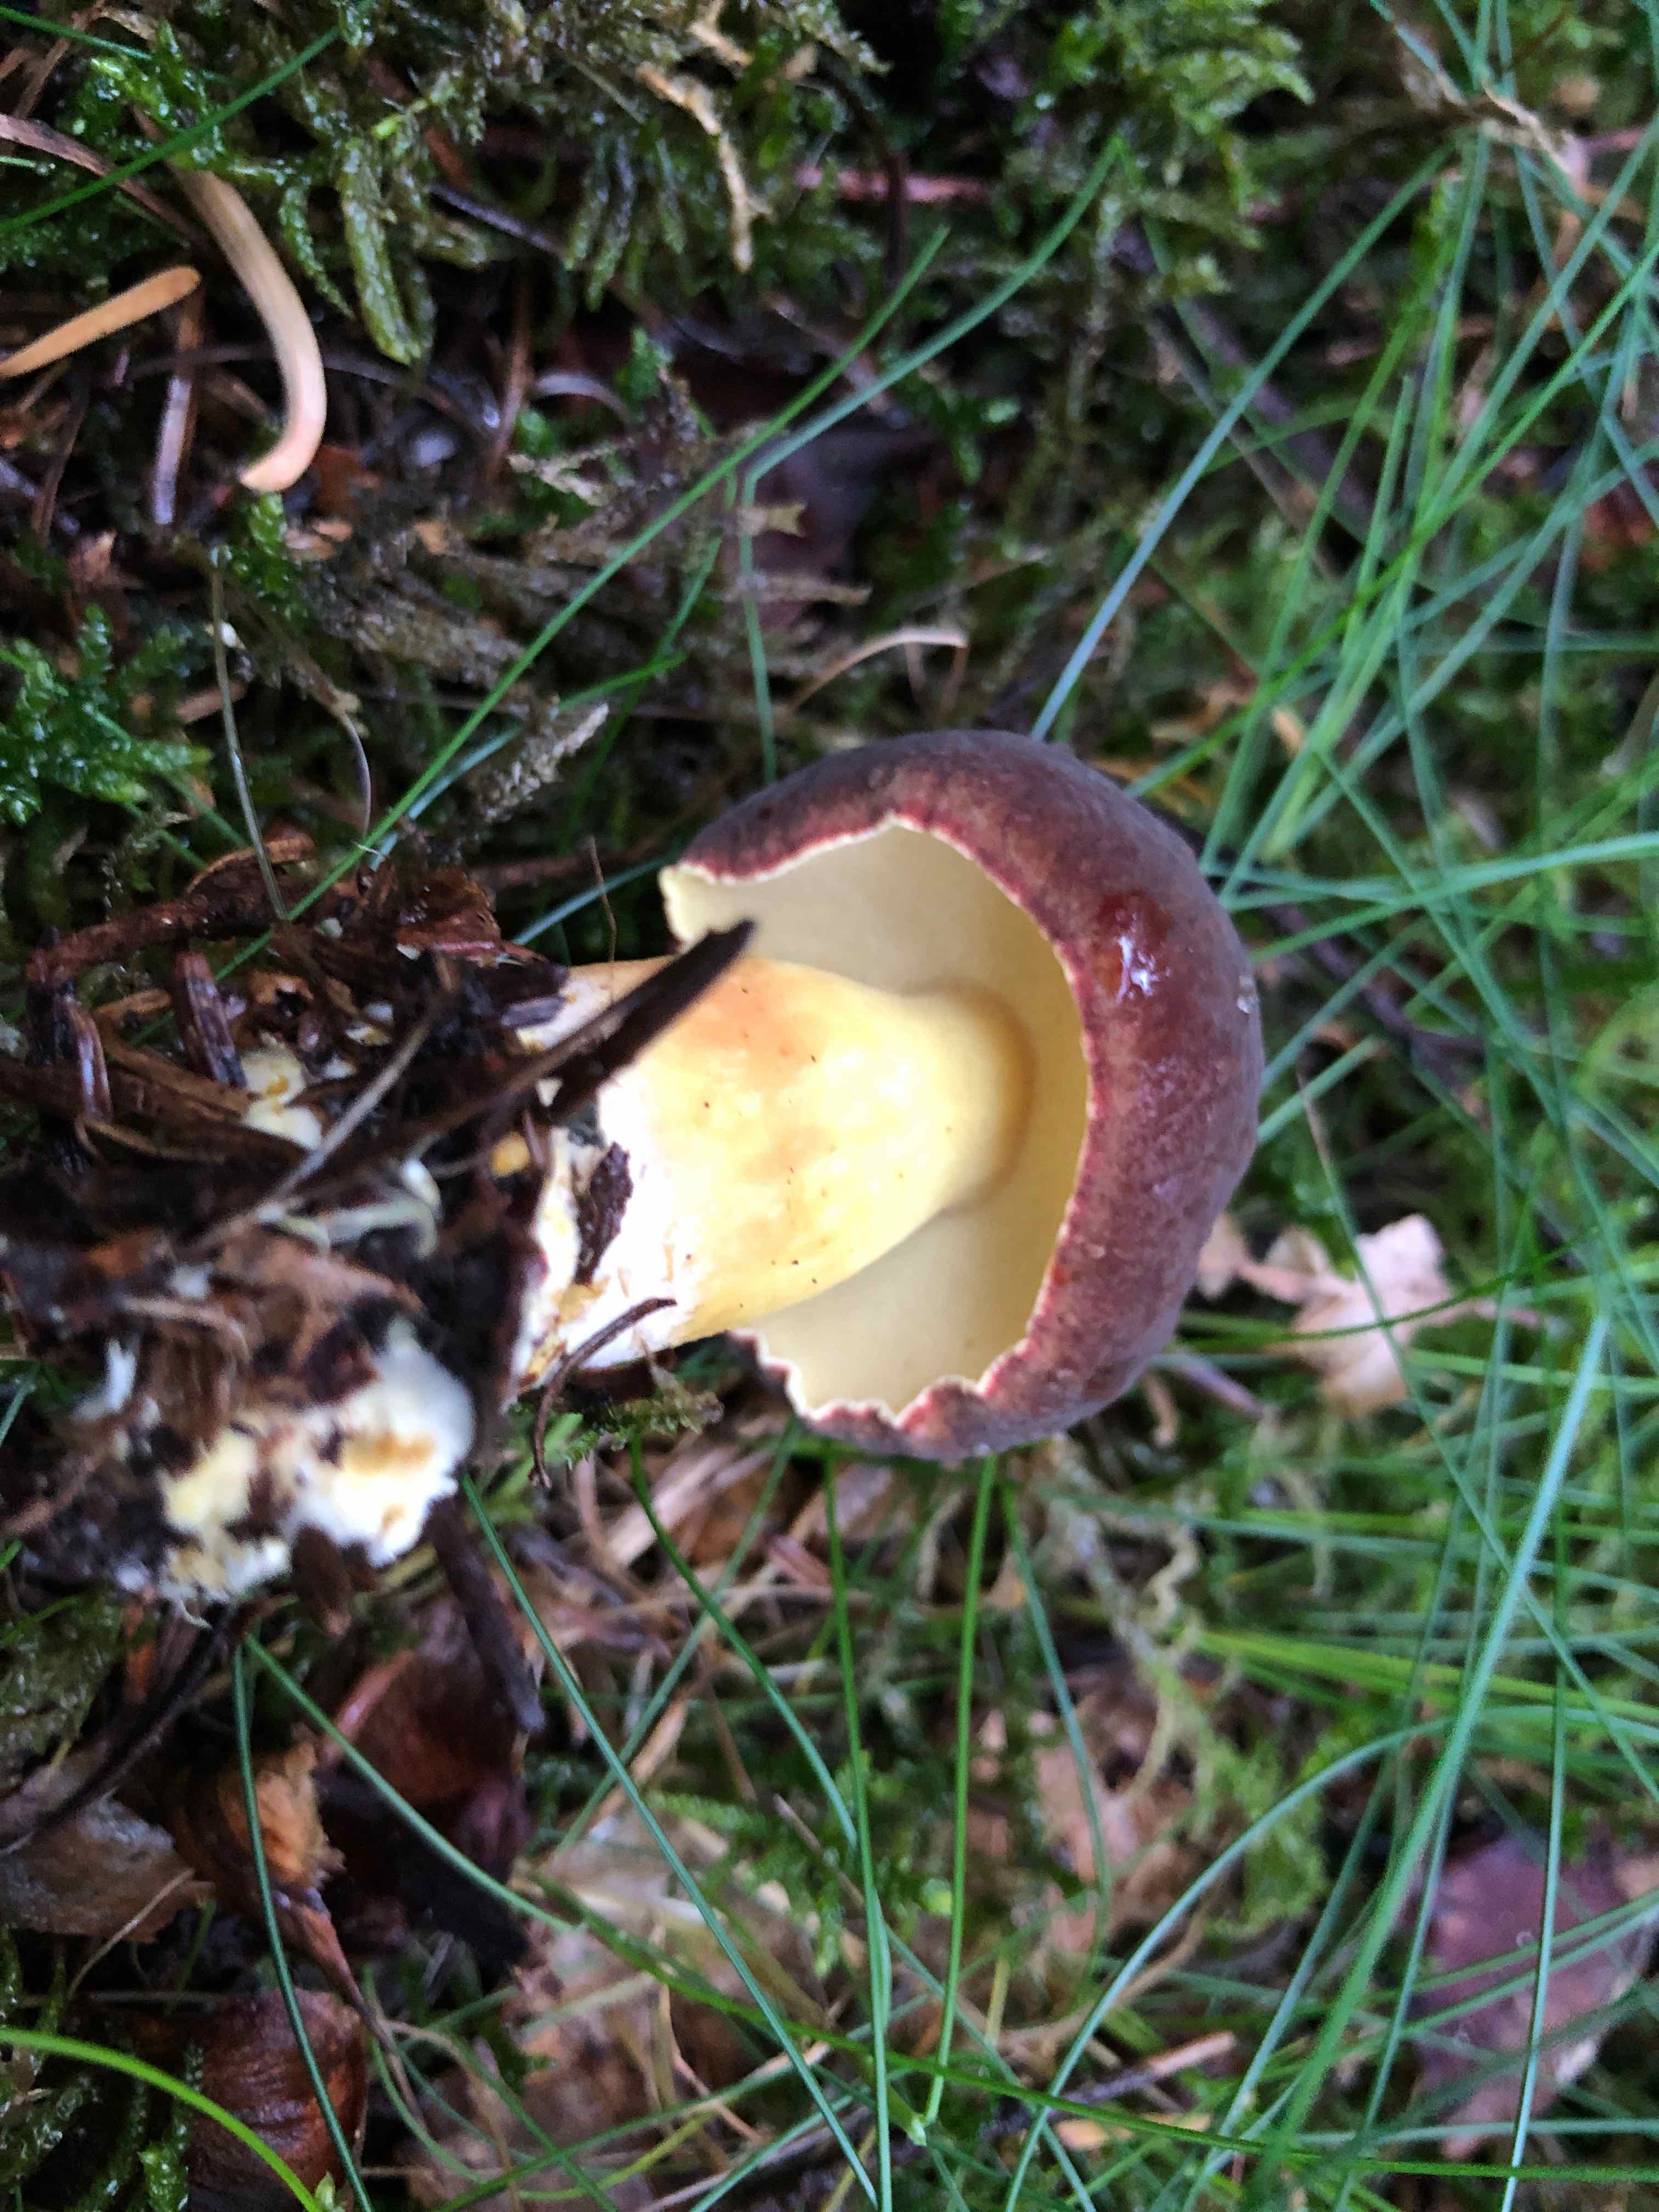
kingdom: Fungi
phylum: Basidiomycota
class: Agaricomycetes
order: Boletales
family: Boletaceae
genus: Xerocomellus
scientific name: Xerocomellus pruinatus
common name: dugget rørhat
